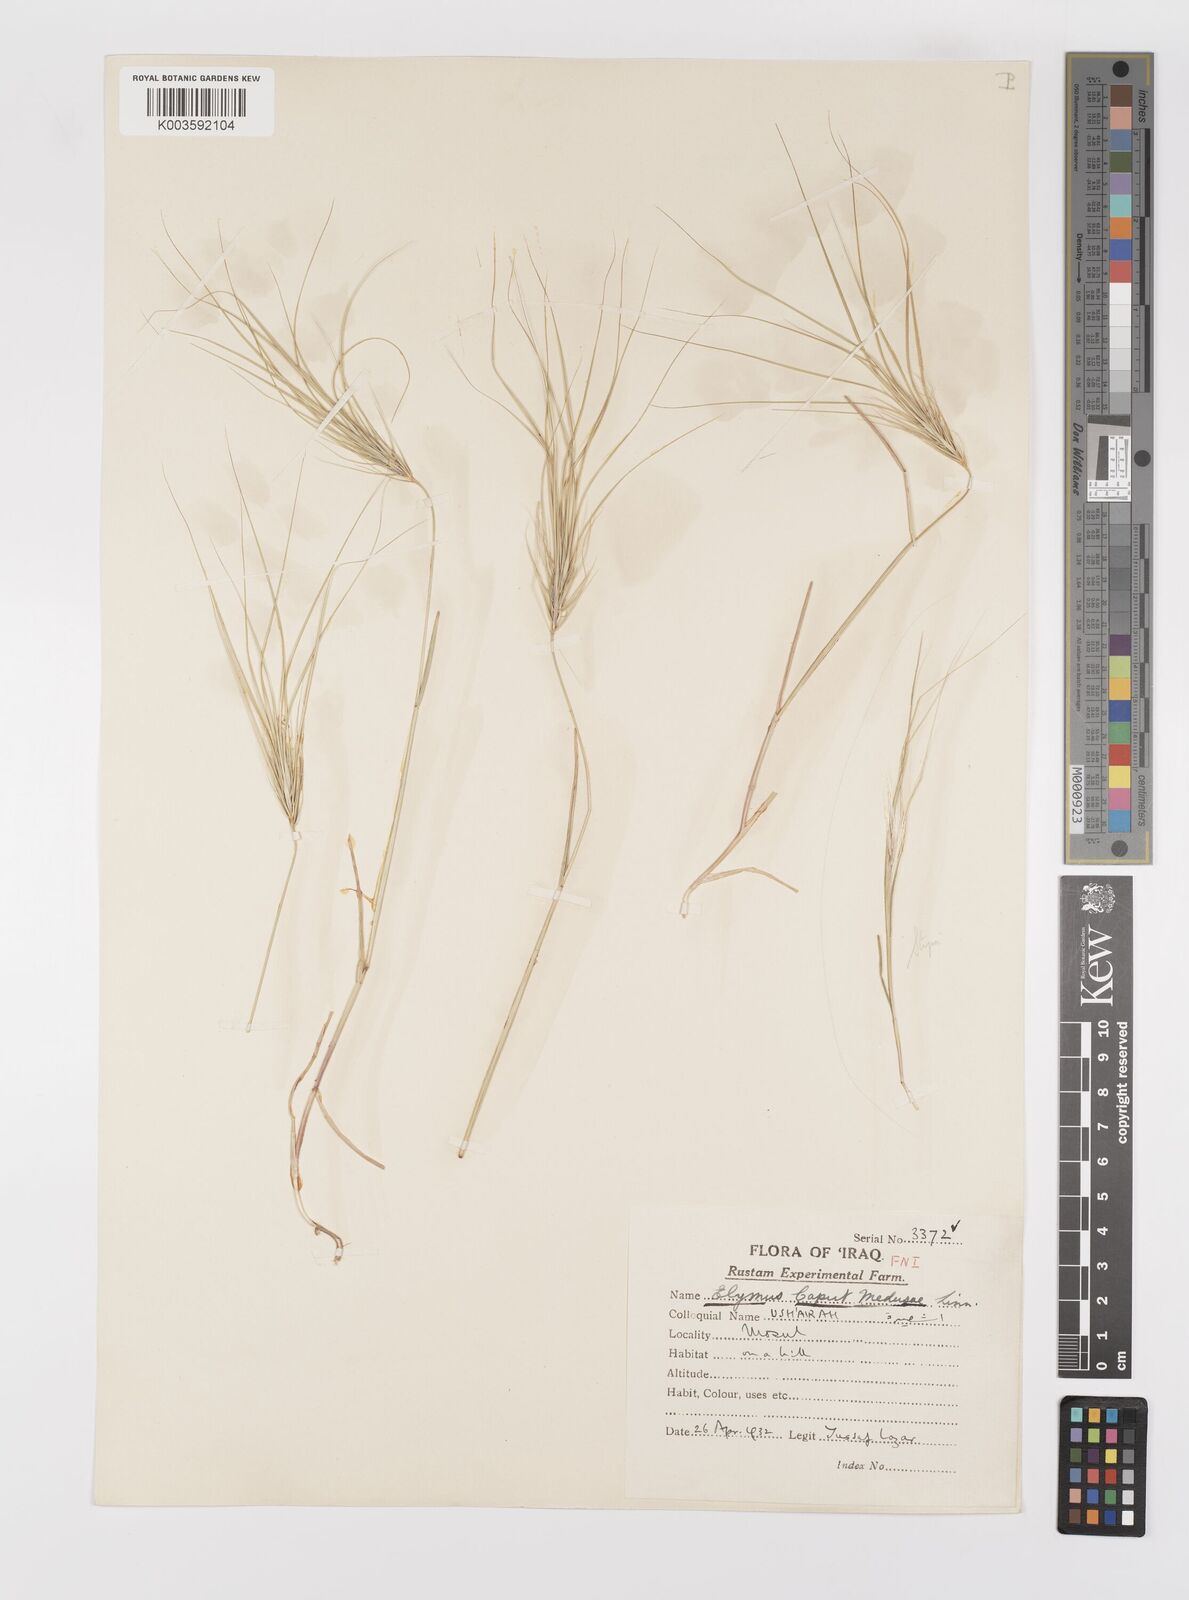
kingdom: Plantae
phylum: Tracheophyta
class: Liliopsida
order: Poales
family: Poaceae
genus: Taeniatherum
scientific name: Taeniatherum caput-medusae
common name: Medusahead
